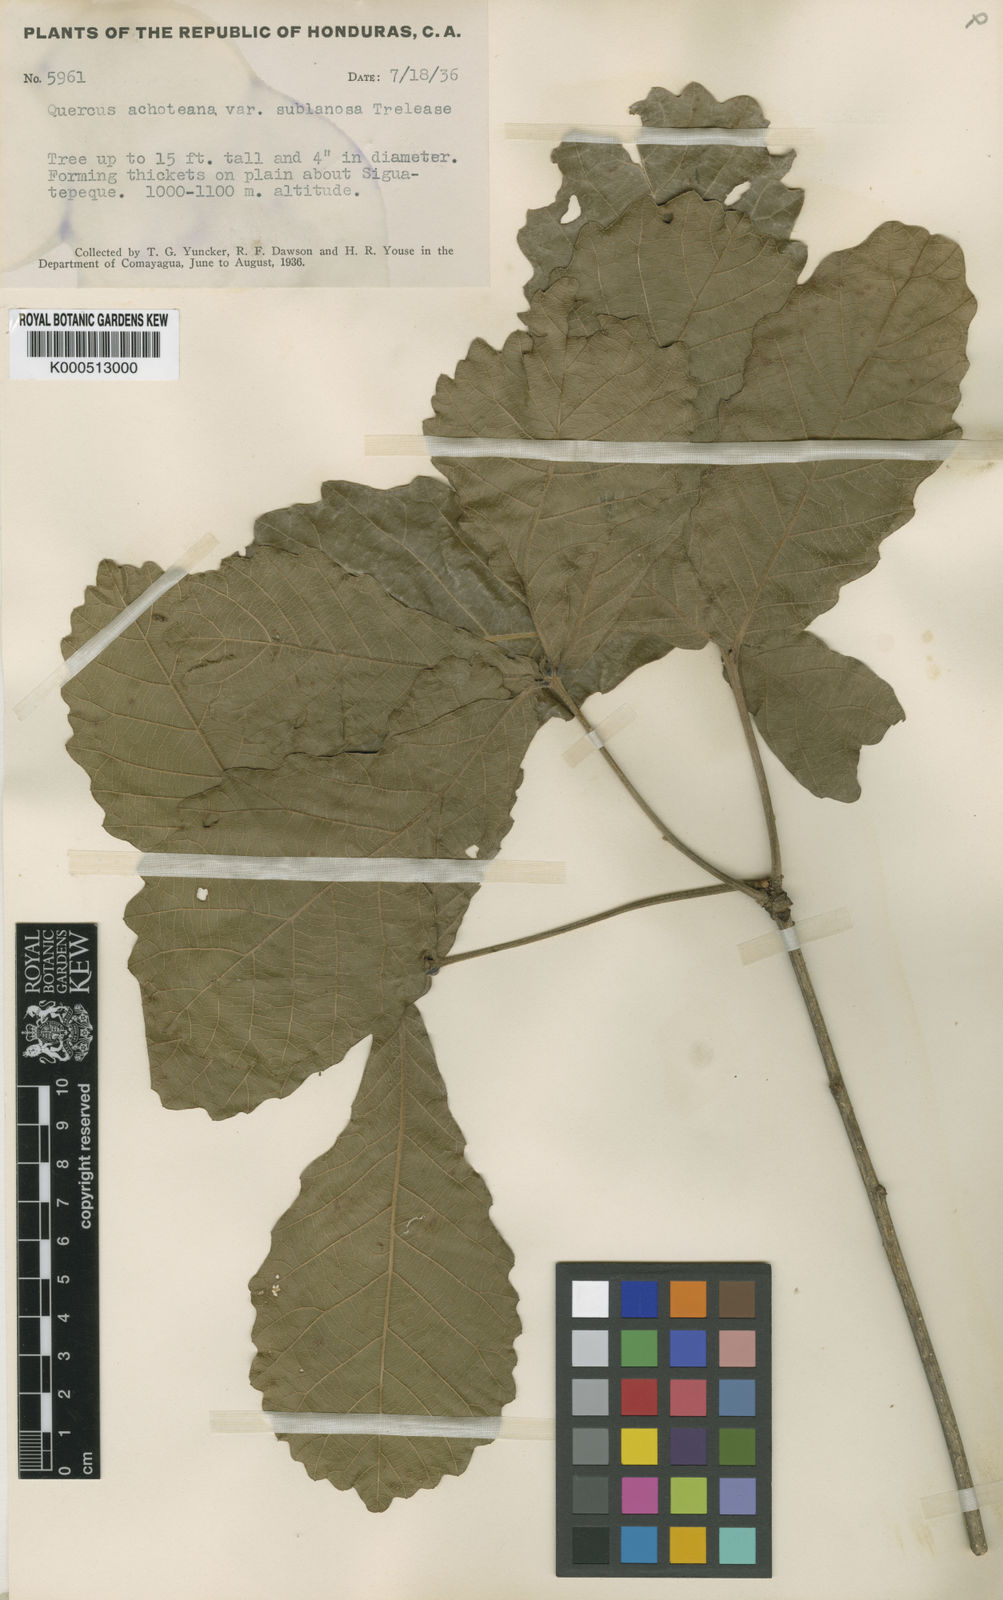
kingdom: Plantae
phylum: Tracheophyta
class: Magnoliopsida
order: Fagales
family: Fagaceae
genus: Quercus
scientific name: Quercus peduncularis
